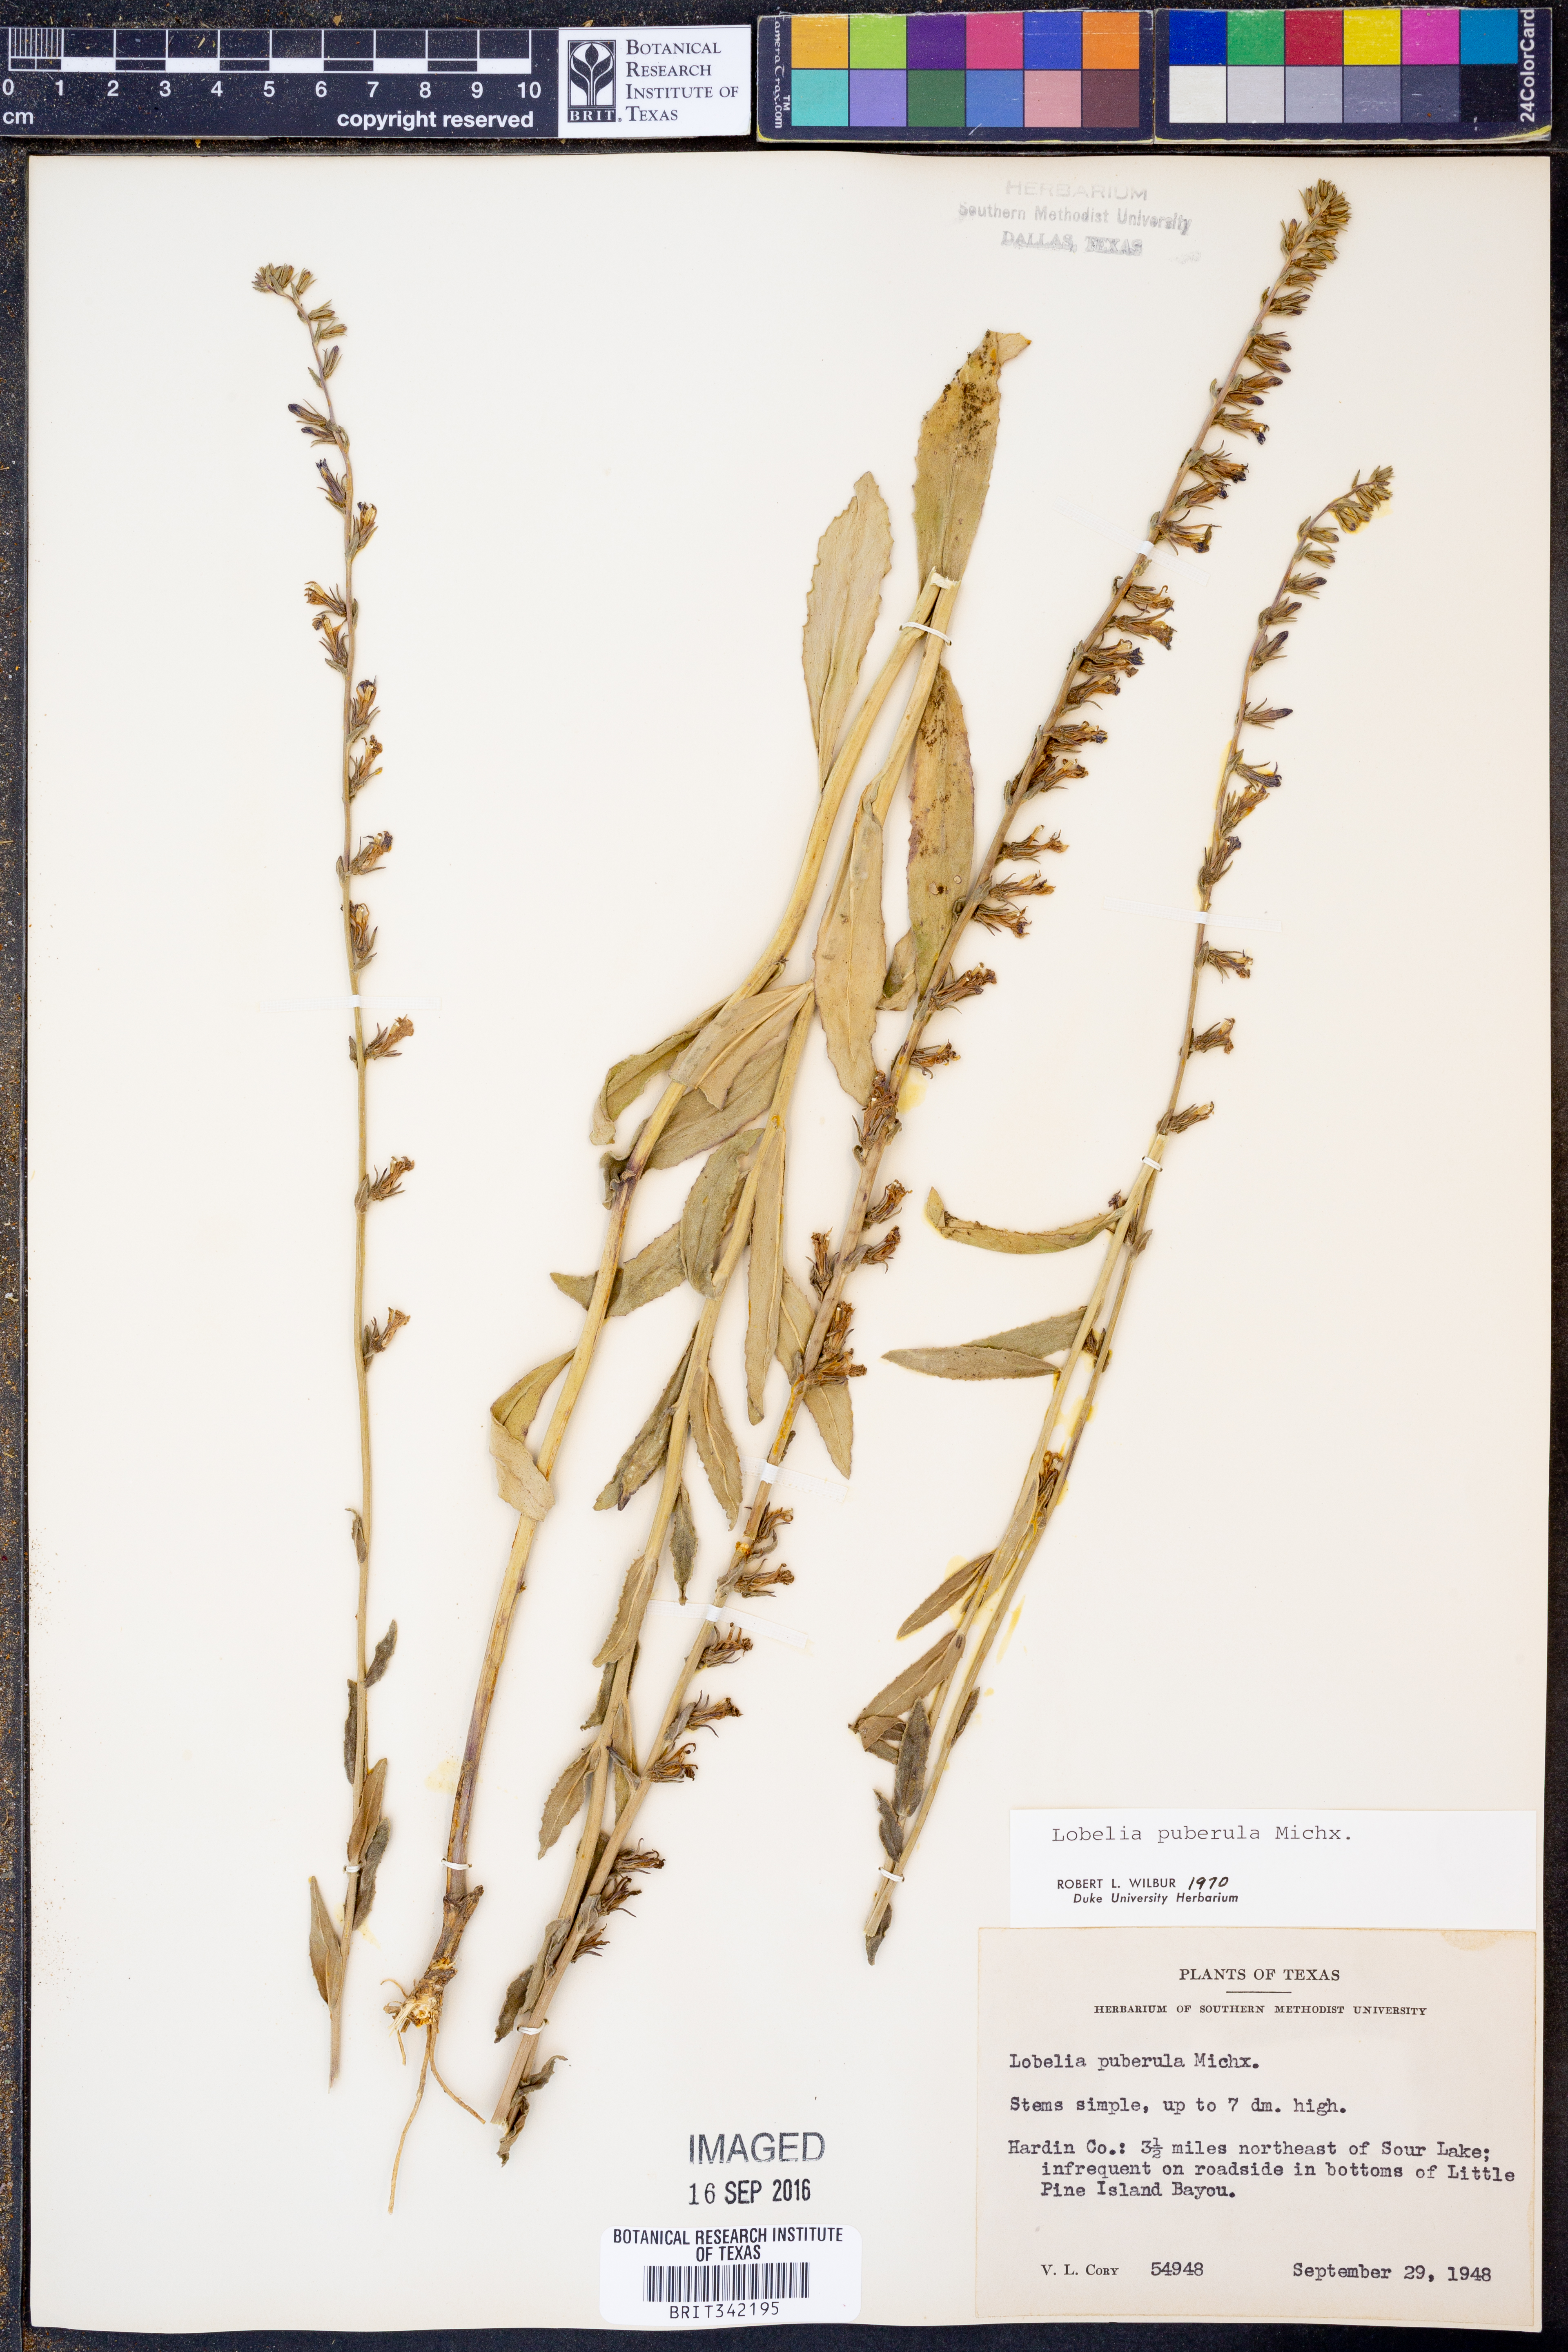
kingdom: Plantae
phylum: Tracheophyta
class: Magnoliopsida
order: Asterales
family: Campanulaceae
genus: Lobelia
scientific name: Lobelia puberula
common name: Purple dewdrop
